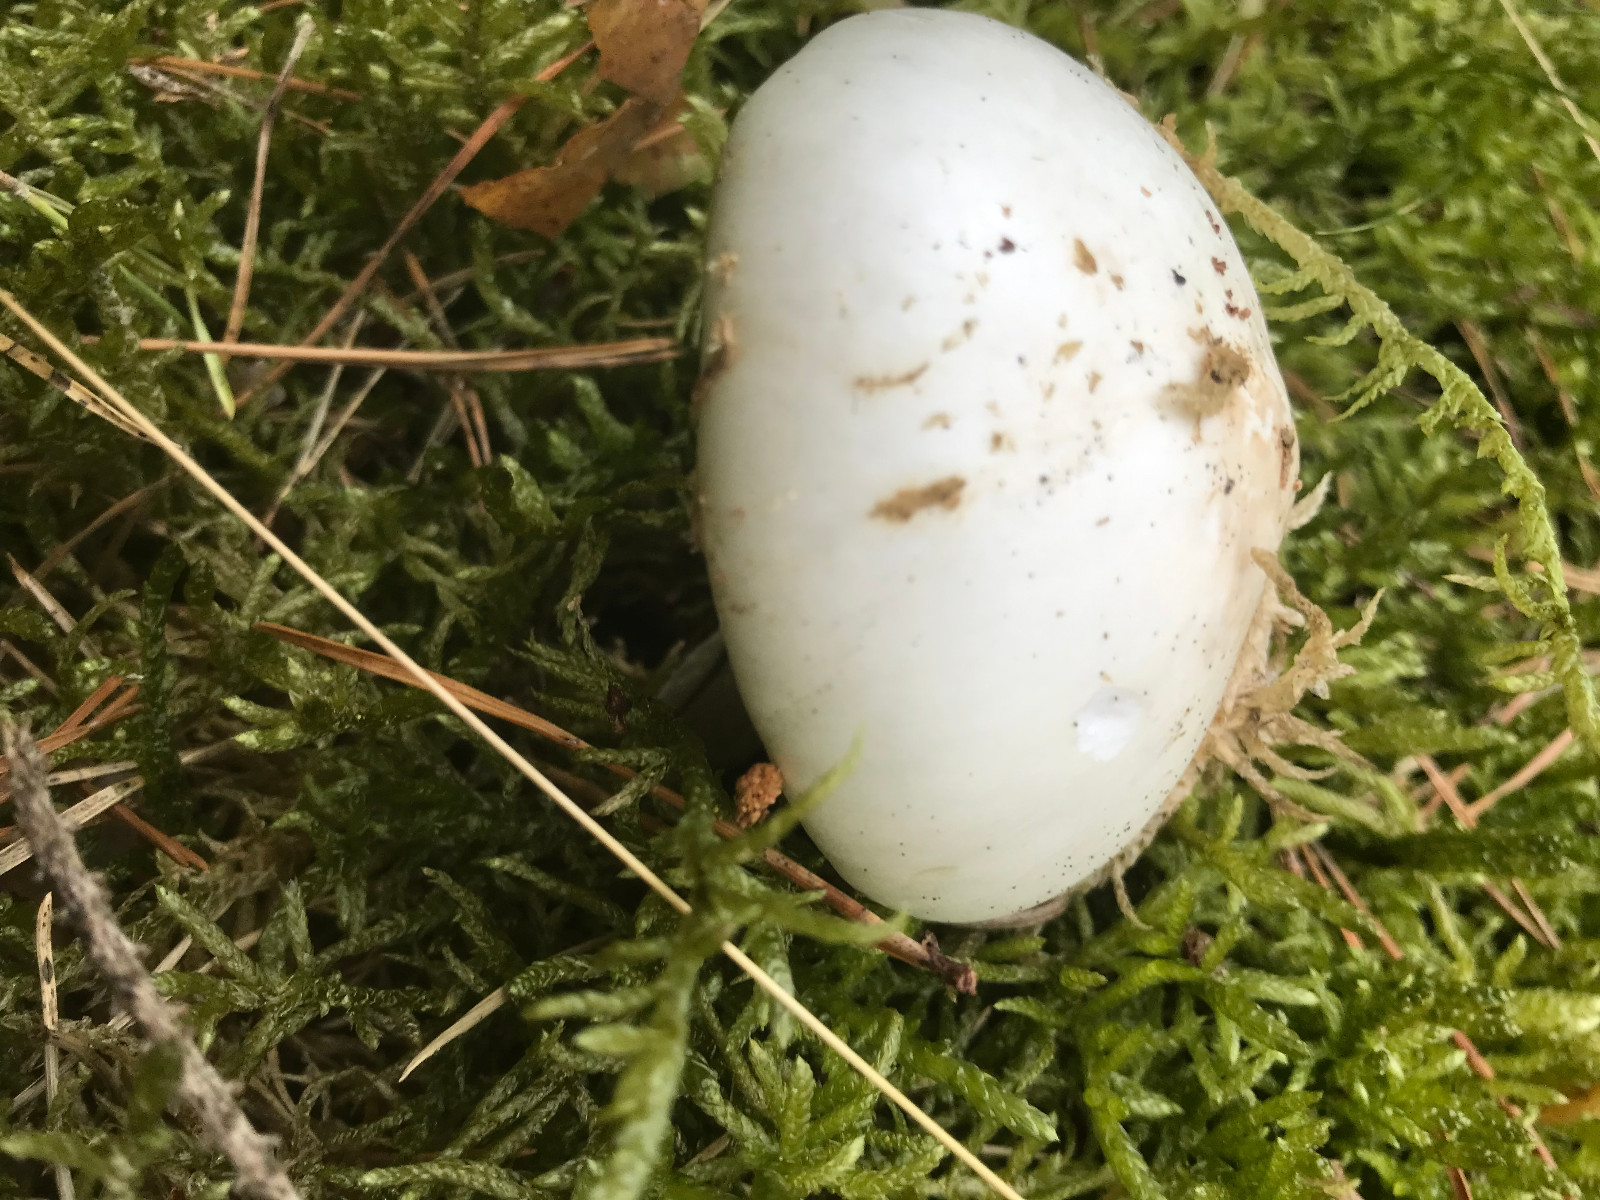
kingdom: Fungi
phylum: Basidiomycota
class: Agaricomycetes
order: Agaricales
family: Amanitaceae
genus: Amanita
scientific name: Amanita virosa
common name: snehvid fluesvamp
